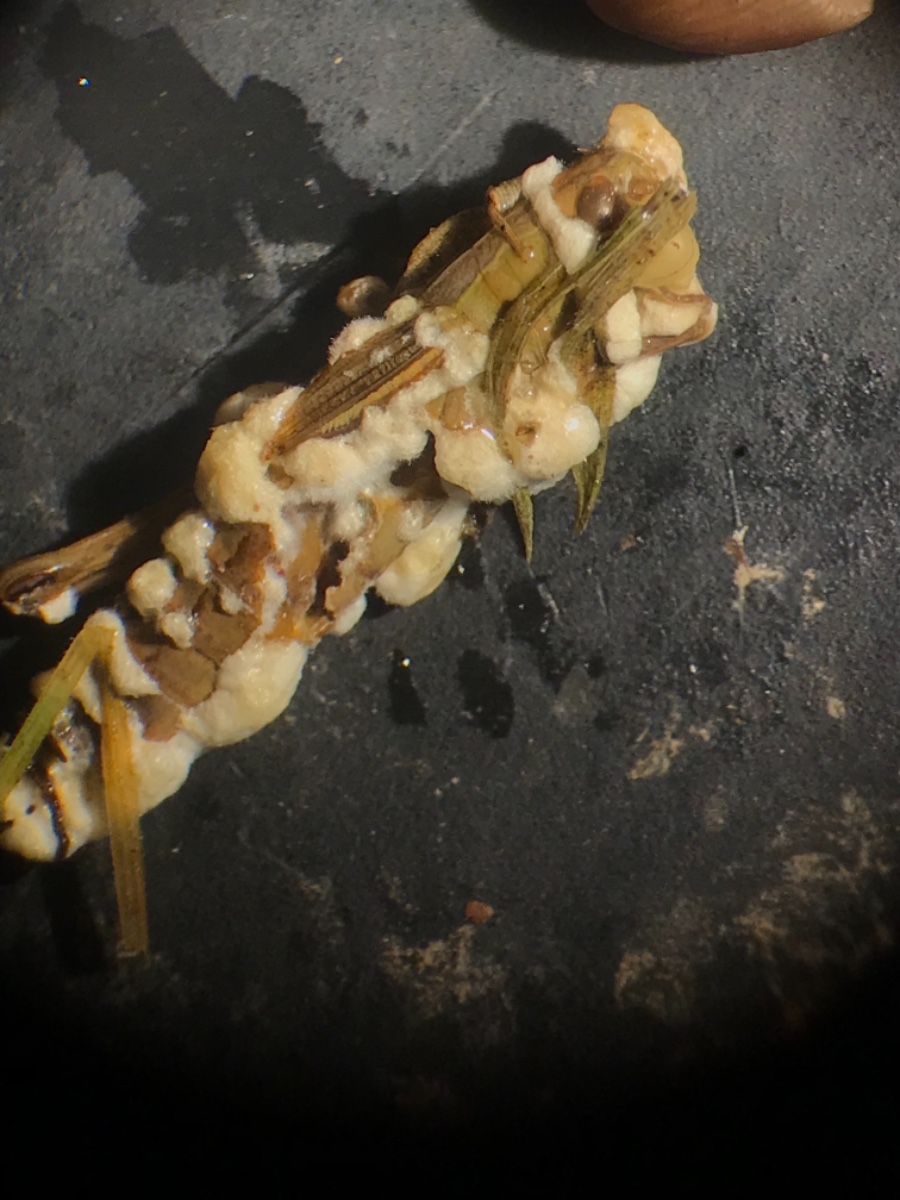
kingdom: Fungi
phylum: Ascomycota
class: Sordariomycetes
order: Hypocreales
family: Cordycipitaceae
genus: Beauveria
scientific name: Beauveria bassiana
